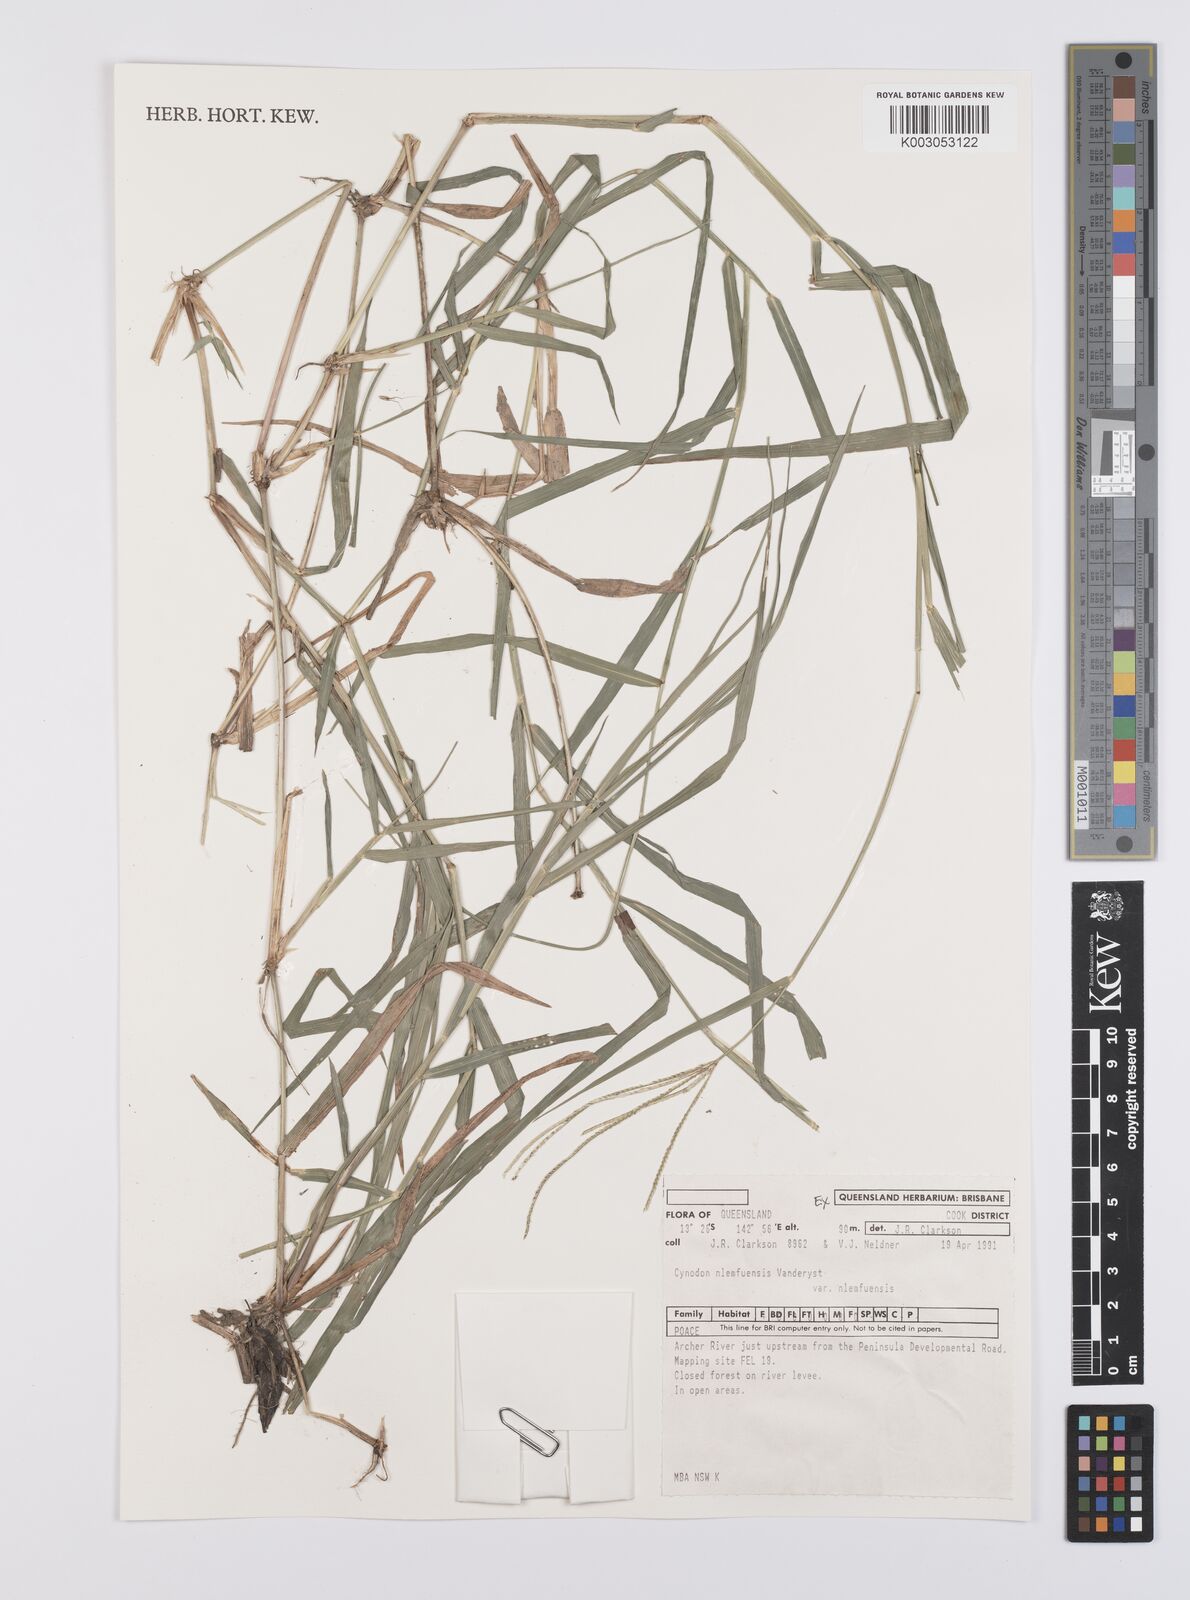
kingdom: Plantae
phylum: Tracheophyta
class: Liliopsida
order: Poales
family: Poaceae
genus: Cynodon
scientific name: Cynodon nlemfuensis
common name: African bermudagrass
